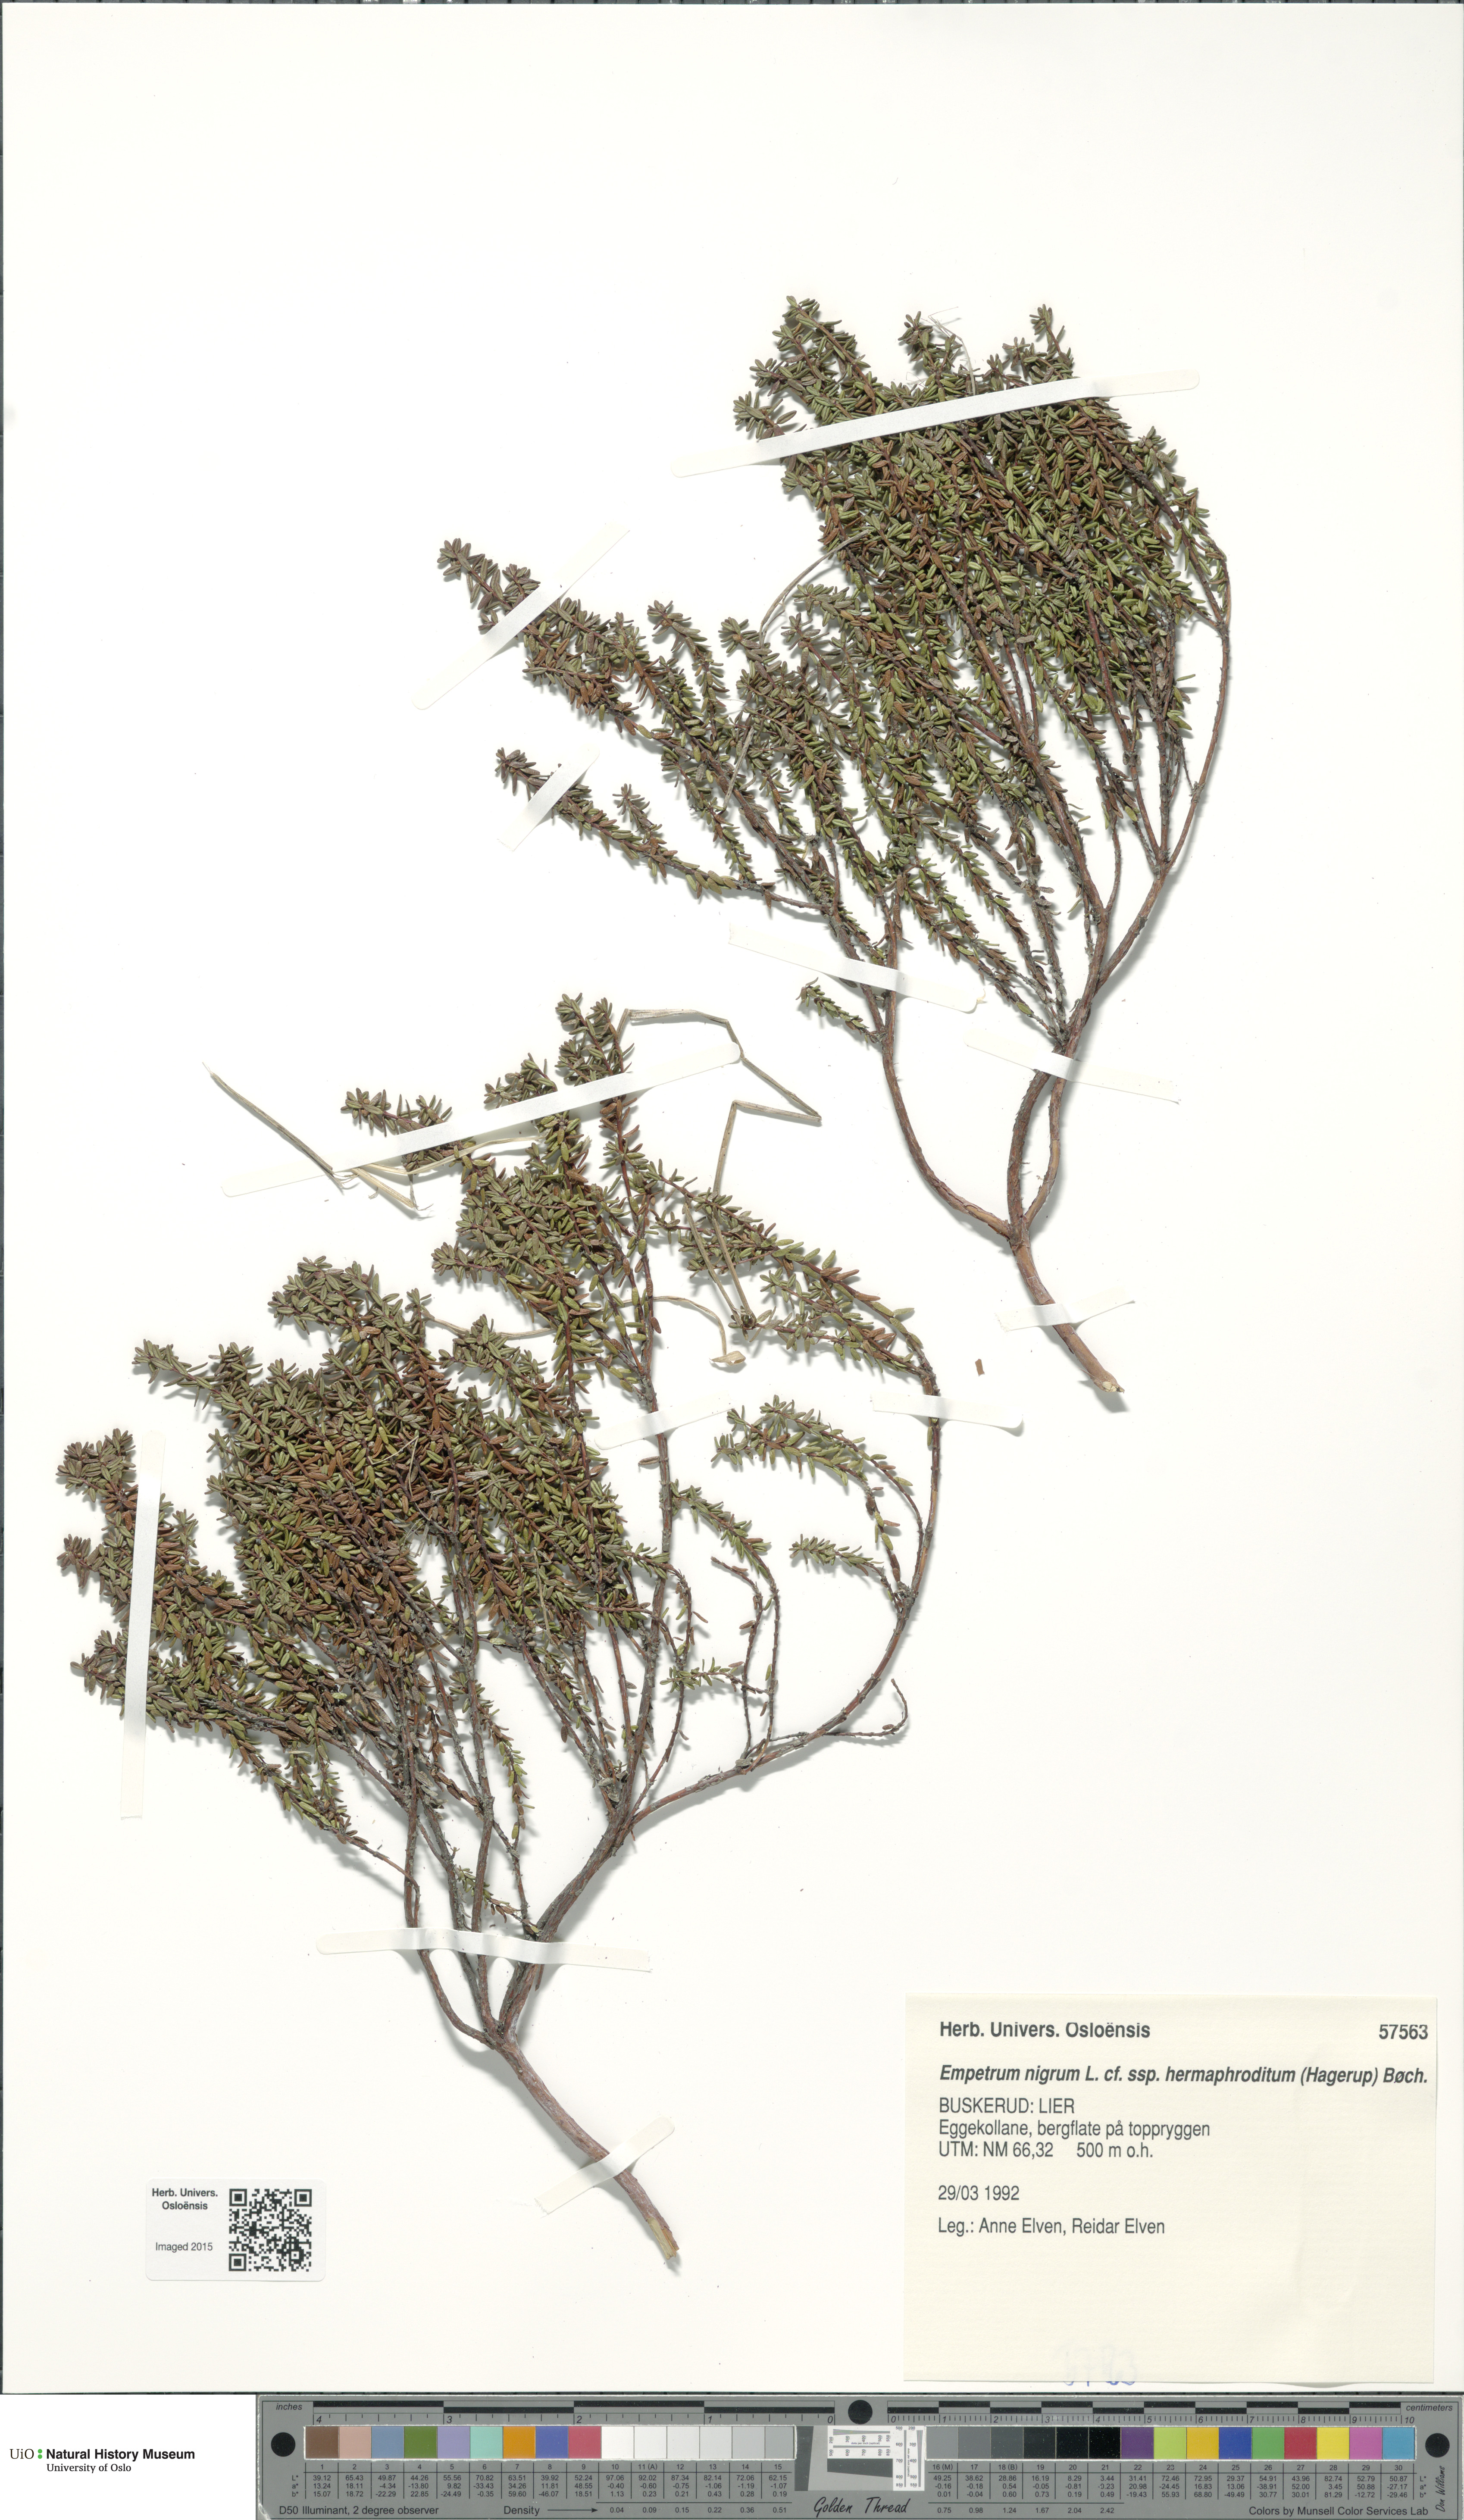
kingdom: Plantae
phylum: Tracheophyta
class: Magnoliopsida
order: Ericales
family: Ericaceae
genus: Empetrum
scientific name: Empetrum hermaphroditum
